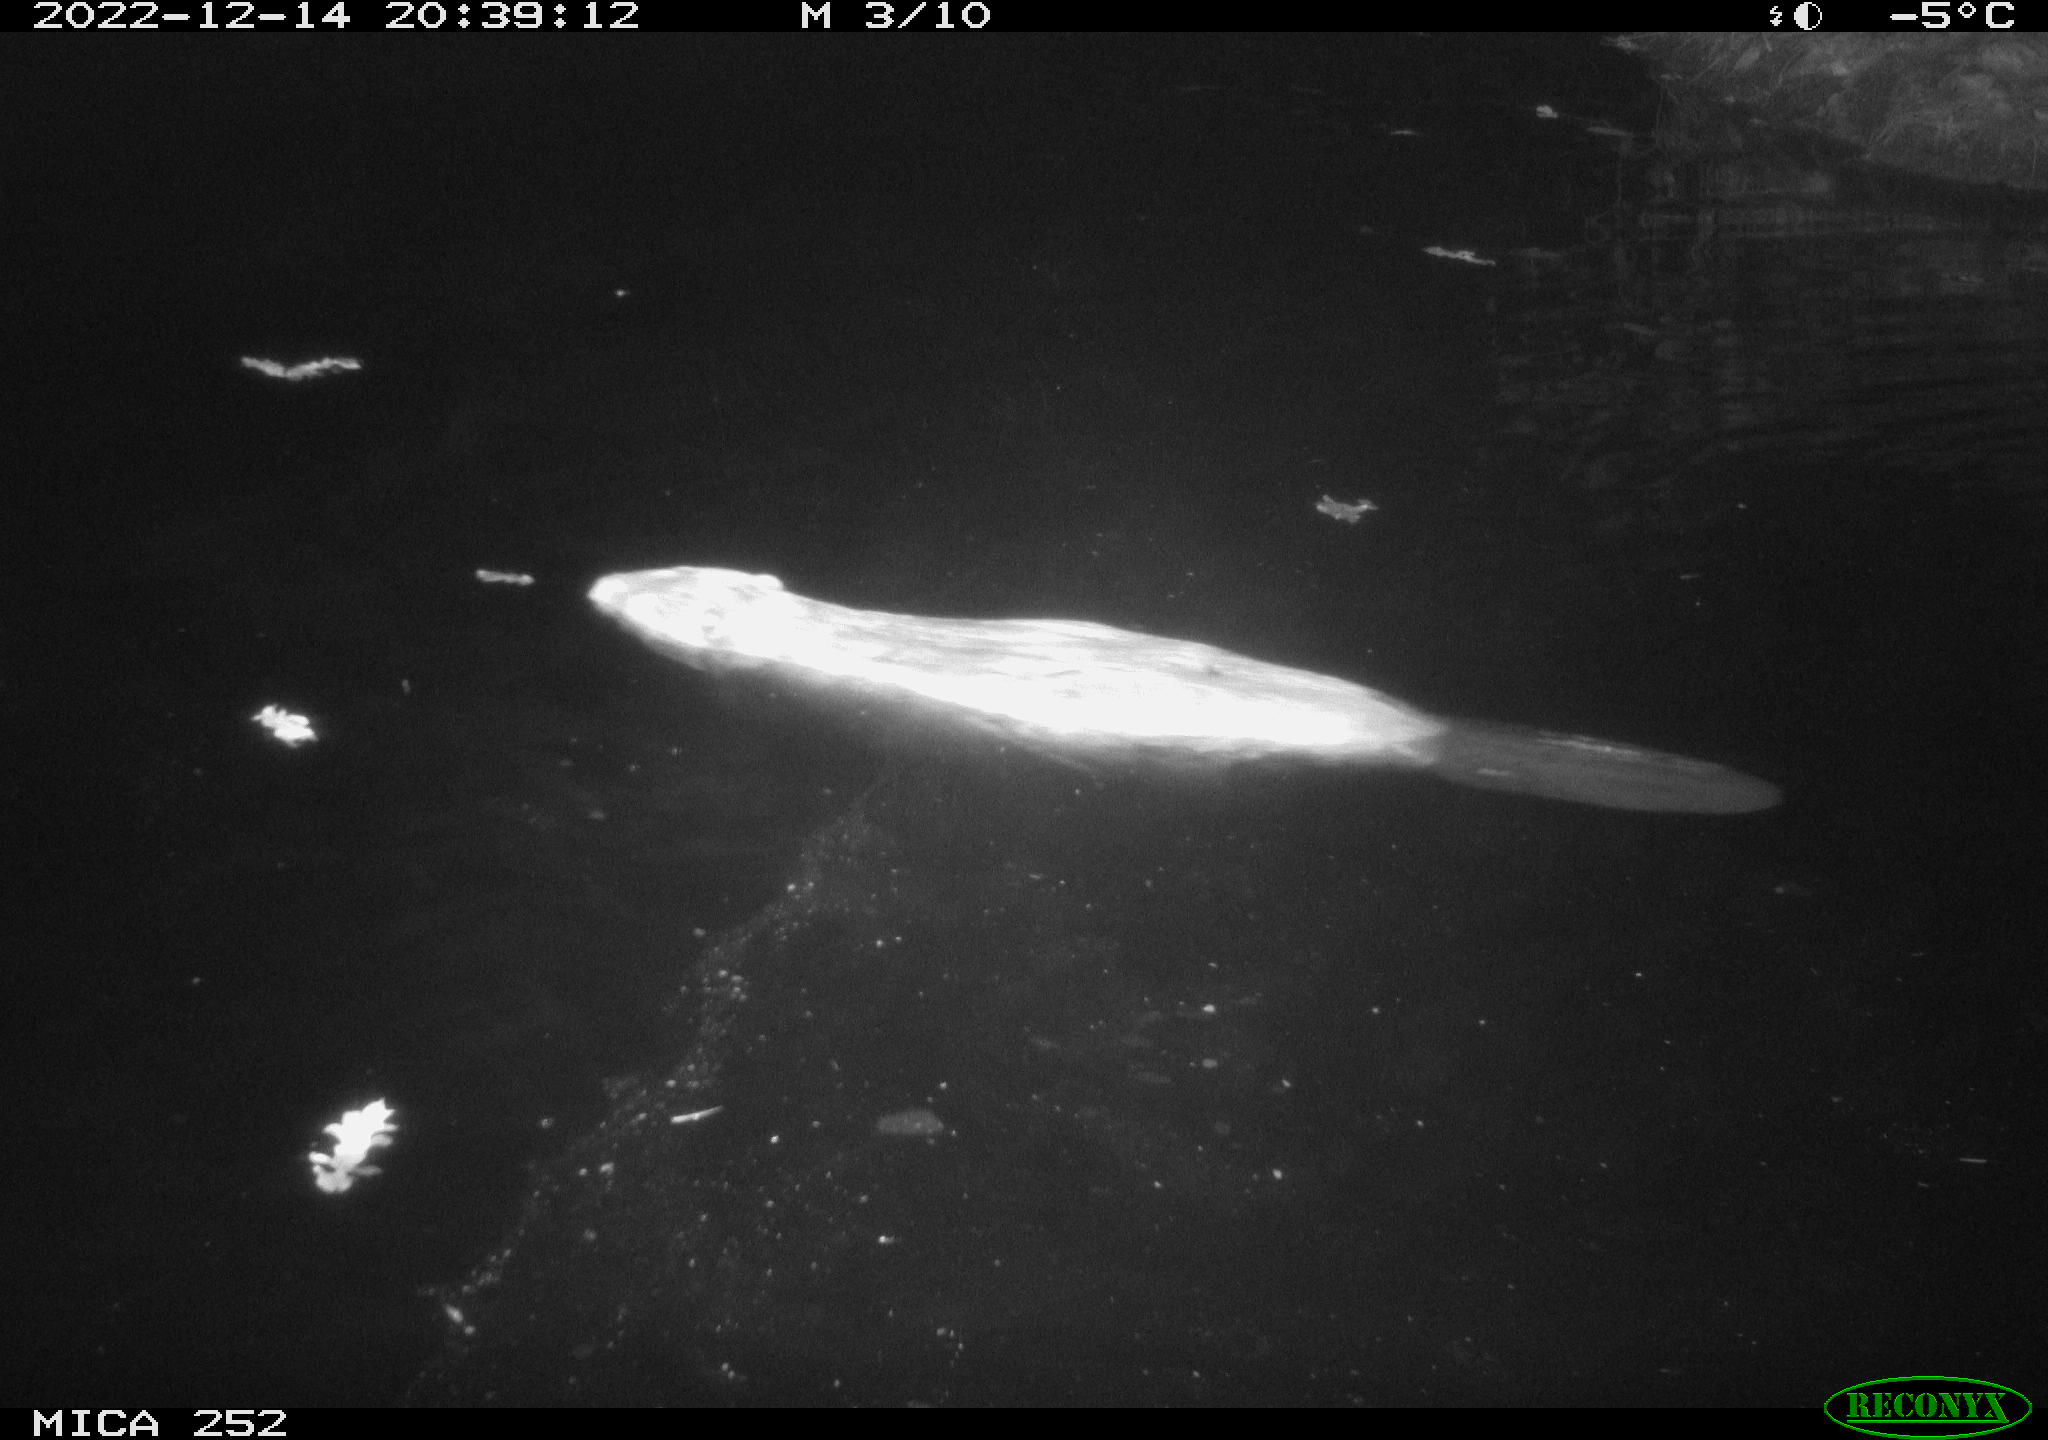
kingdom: Animalia
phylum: Chordata
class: Mammalia
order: Rodentia
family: Castoridae
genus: Castor
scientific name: Castor fiber
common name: Eurasian beaver
